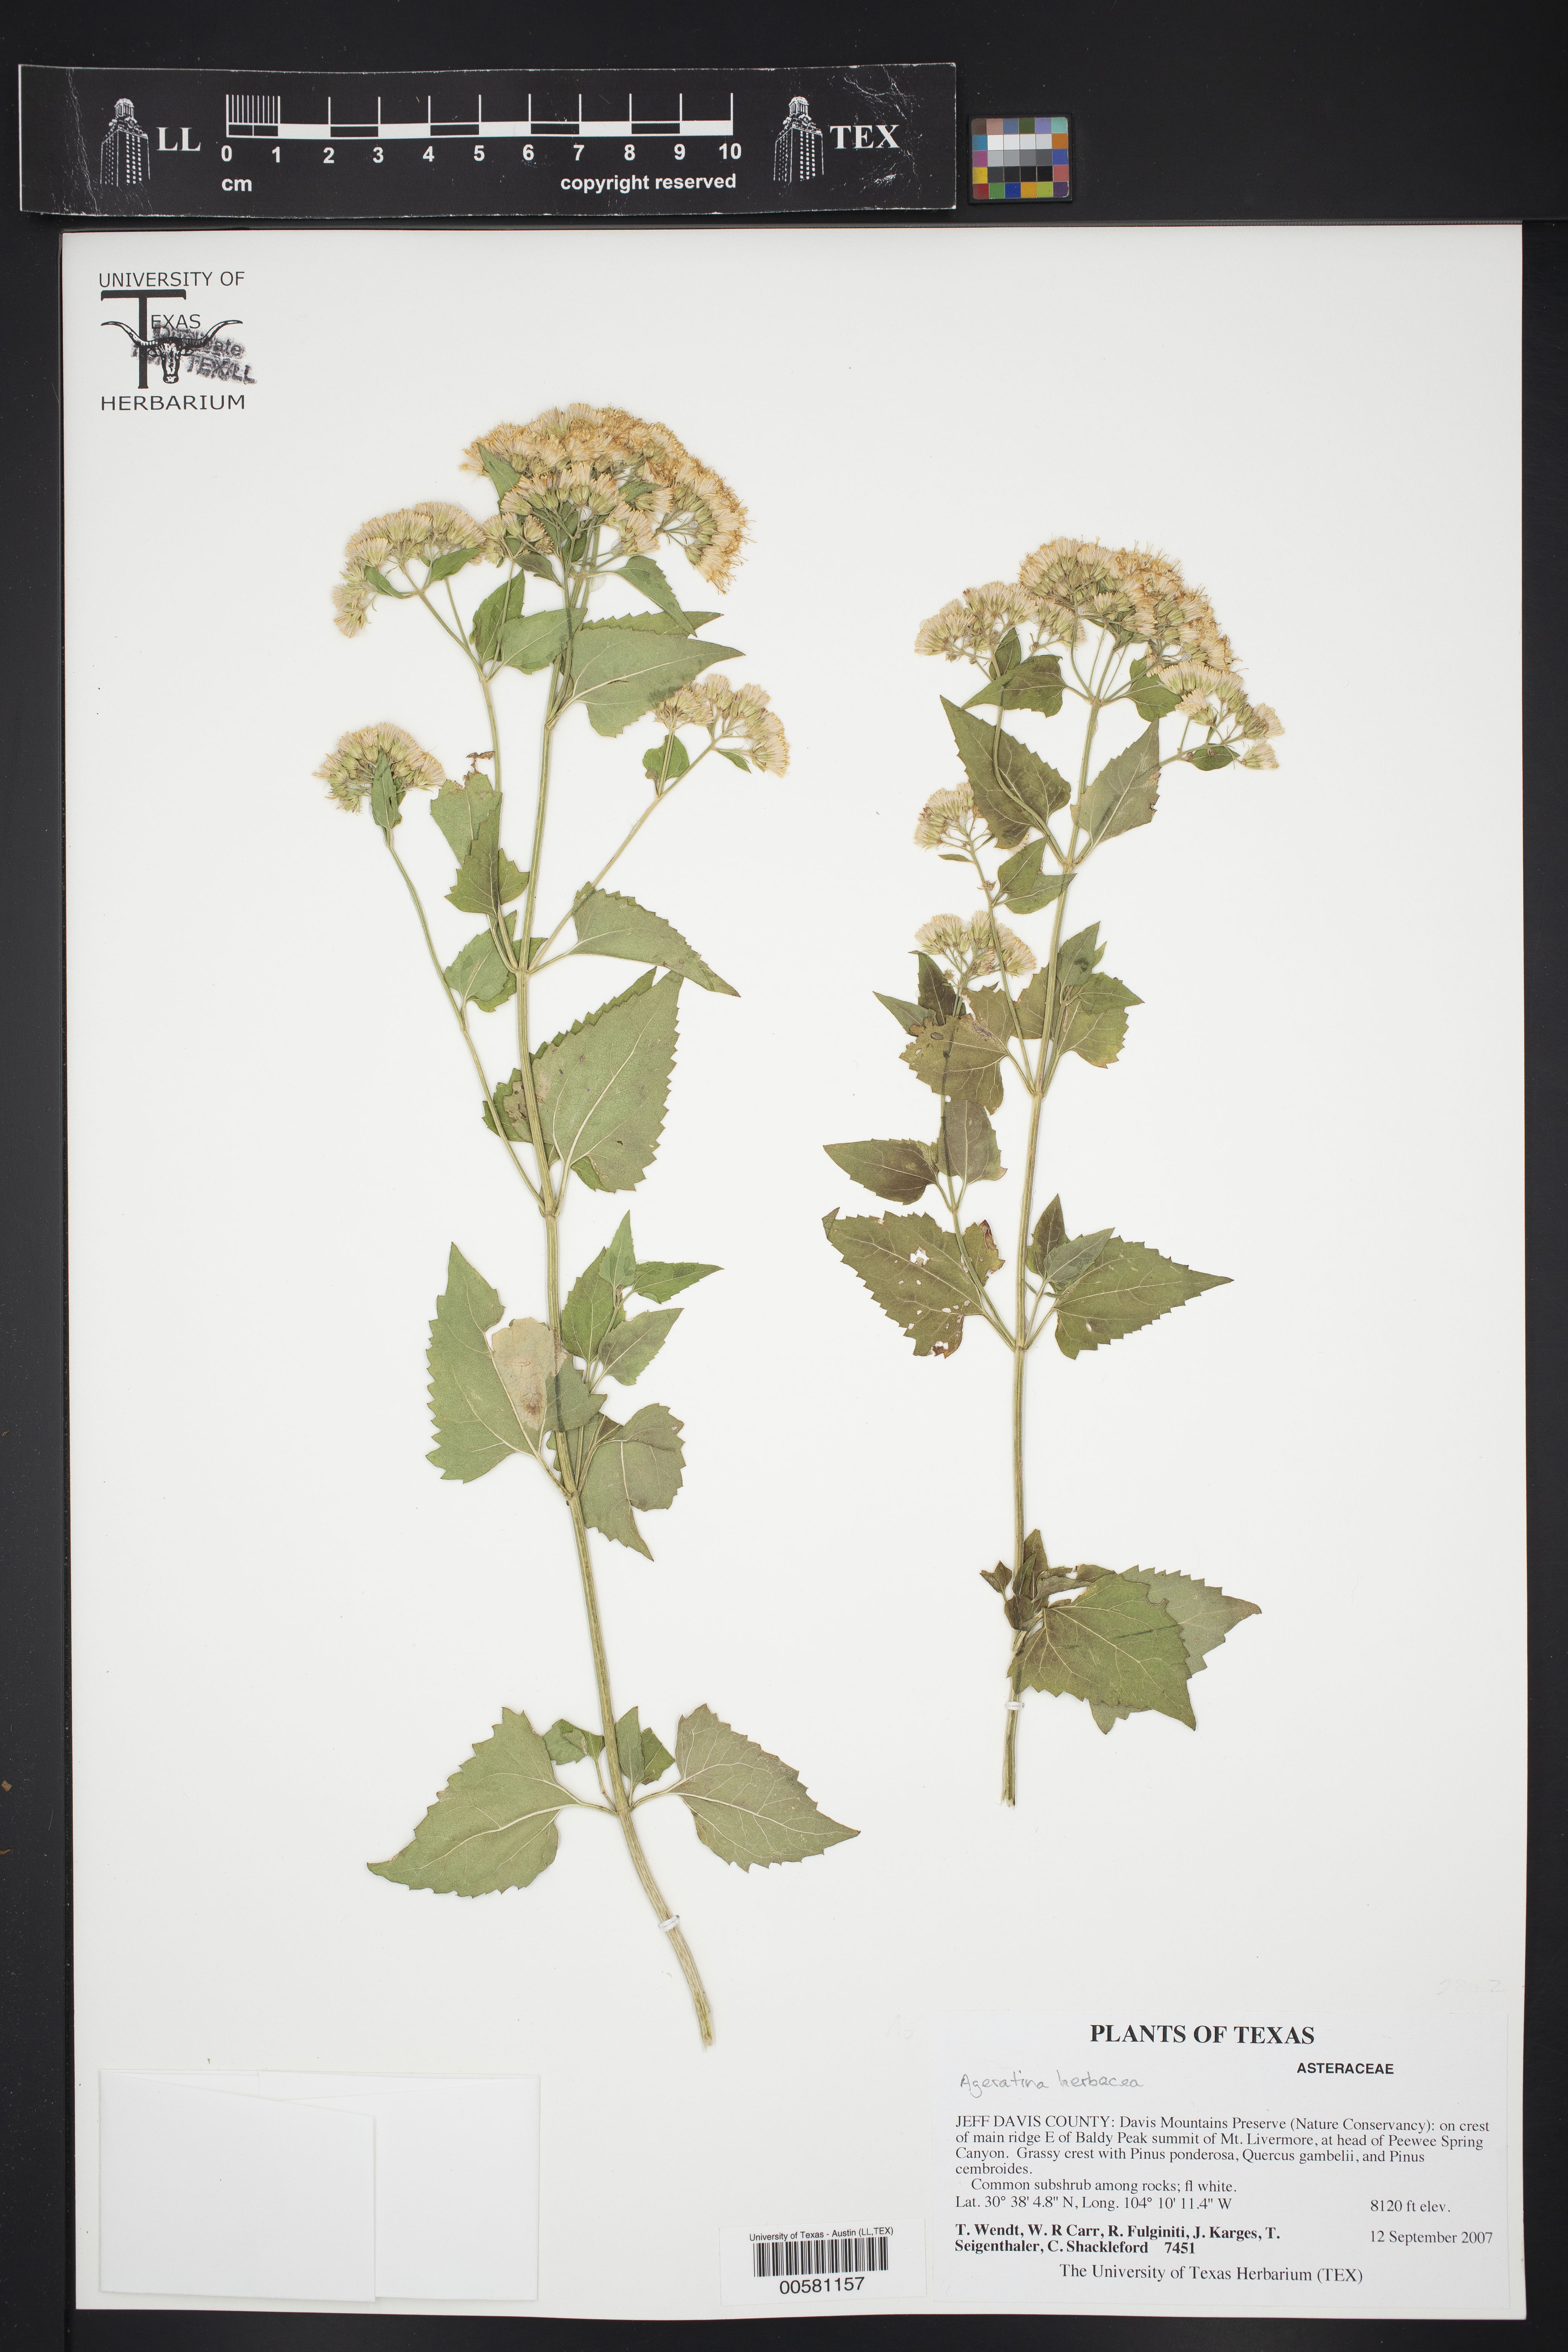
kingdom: Plantae
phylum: Tracheophyta
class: Magnoliopsida
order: Asterales
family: Asteraceae
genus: Ageratina
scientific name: Ageratina herbacea
